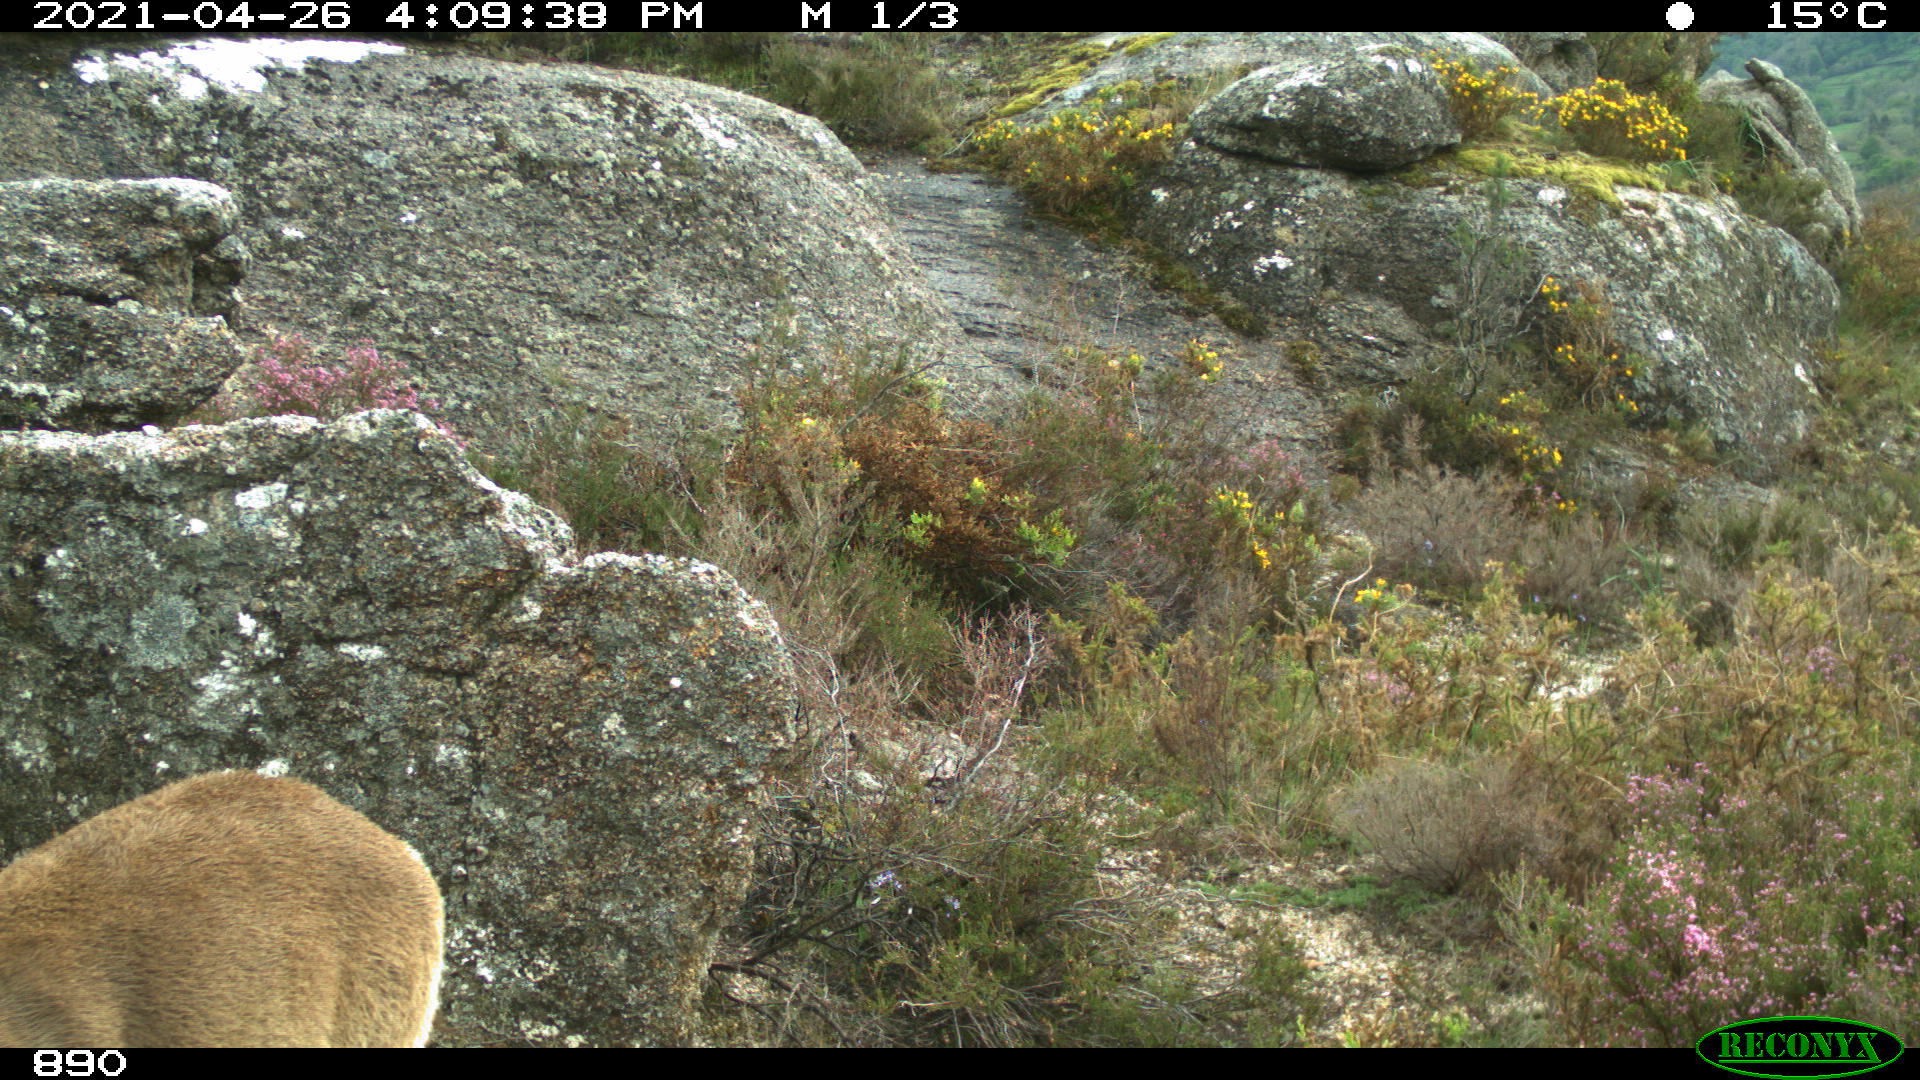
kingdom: Animalia
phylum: Chordata
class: Mammalia
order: Artiodactyla
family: Bovidae
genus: Capra
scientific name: Capra pyrenaica
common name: Spanish ibex
